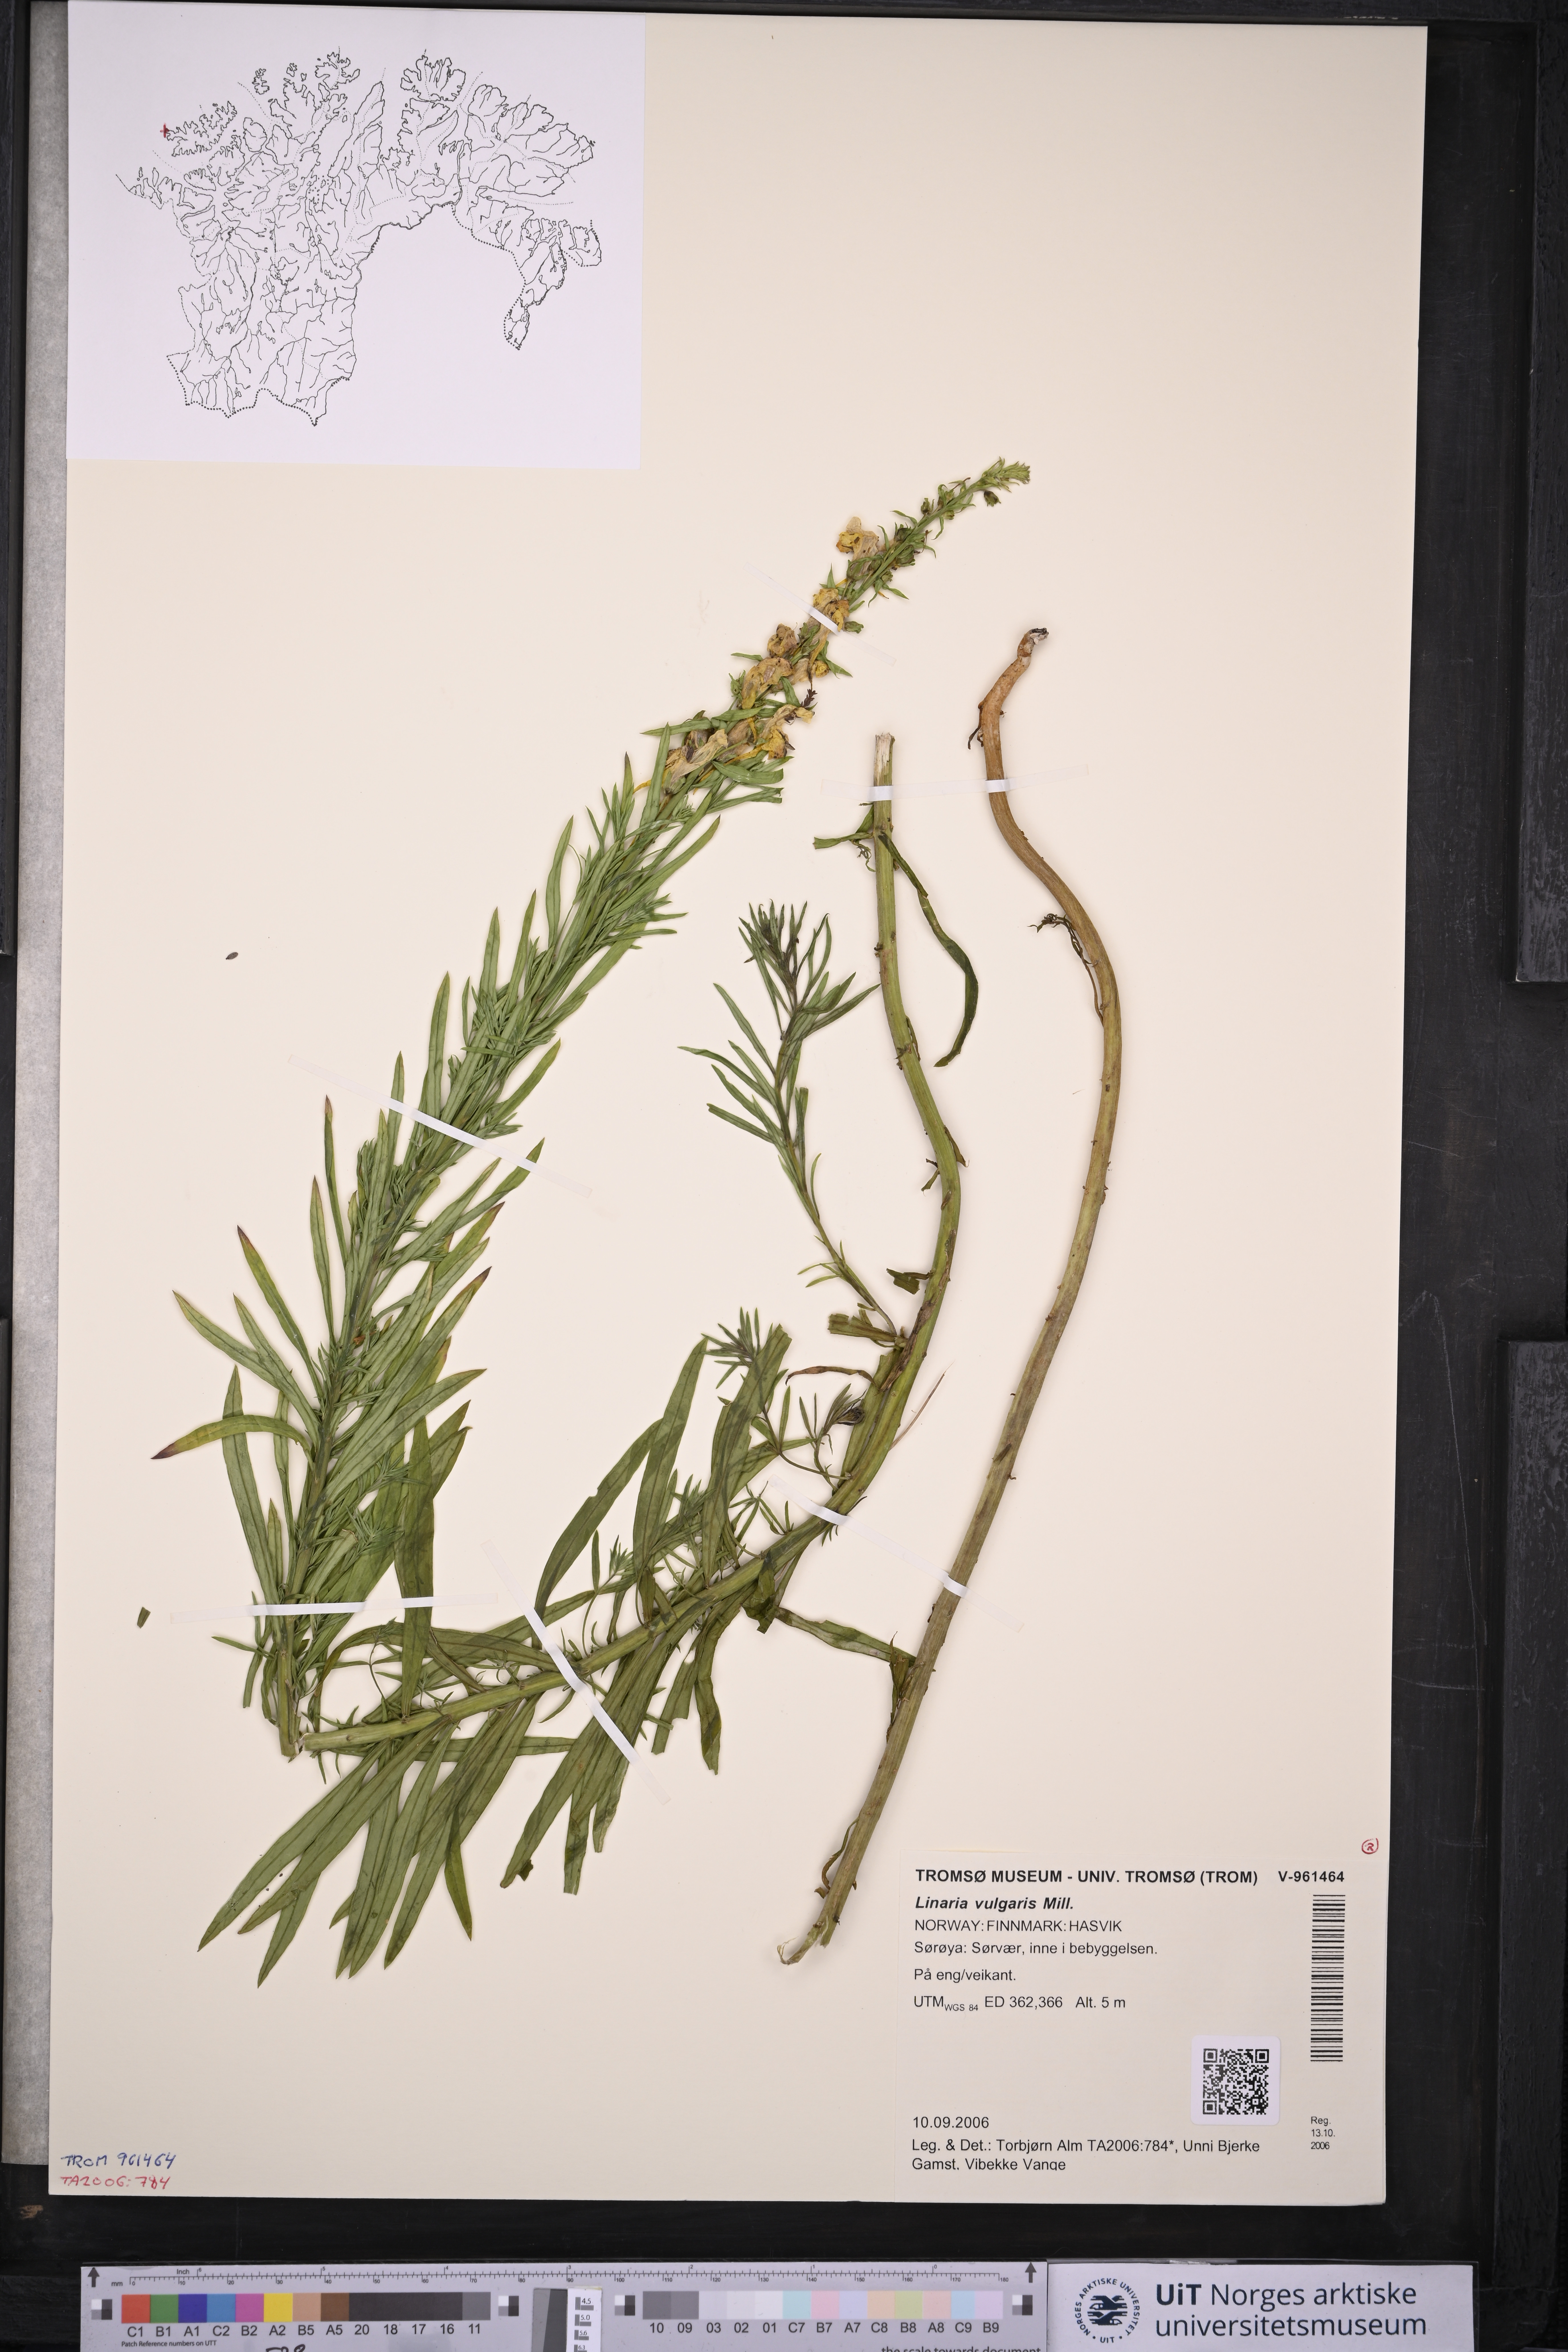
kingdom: Plantae
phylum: Tracheophyta
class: Magnoliopsida
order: Lamiales
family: Plantaginaceae
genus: Linaria
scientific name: Linaria vulgaris
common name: Butter and eggs
